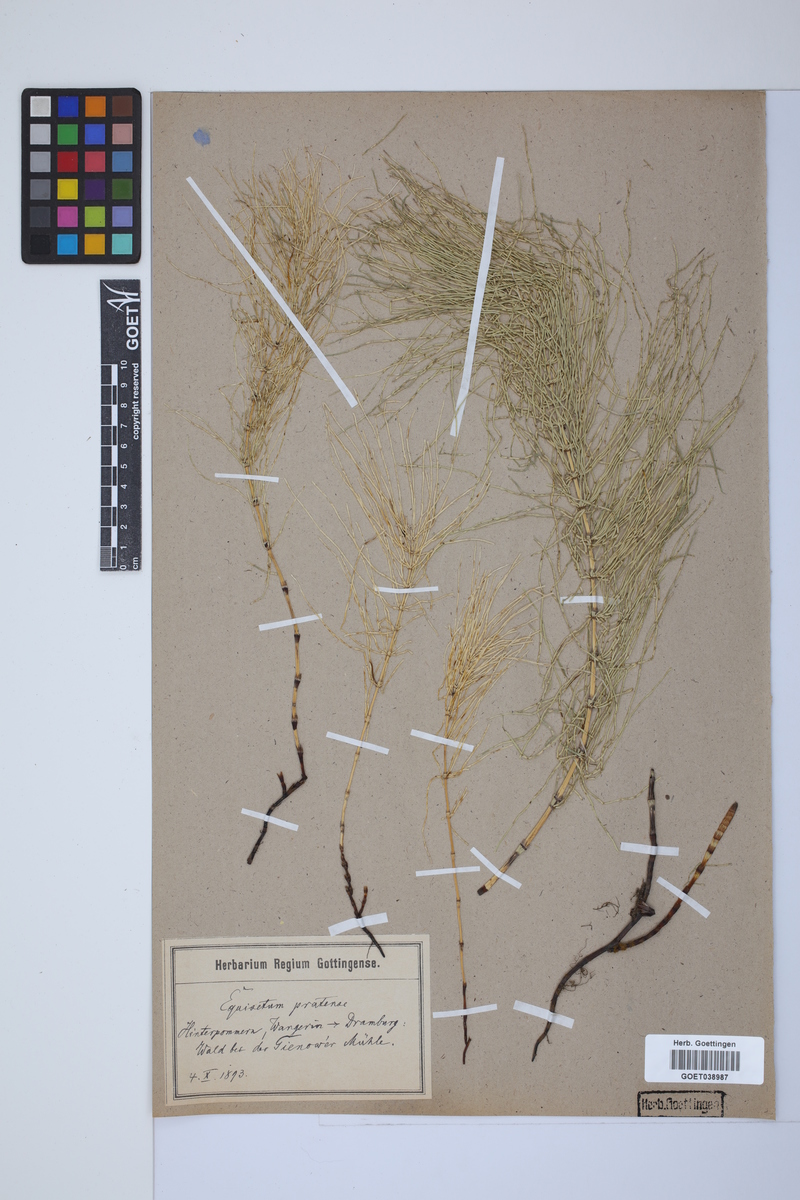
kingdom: Plantae
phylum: Tracheophyta
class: Polypodiopsida
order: Equisetales
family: Equisetaceae
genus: Equisetum
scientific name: Equisetum pratense
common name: Meadow horsetail
